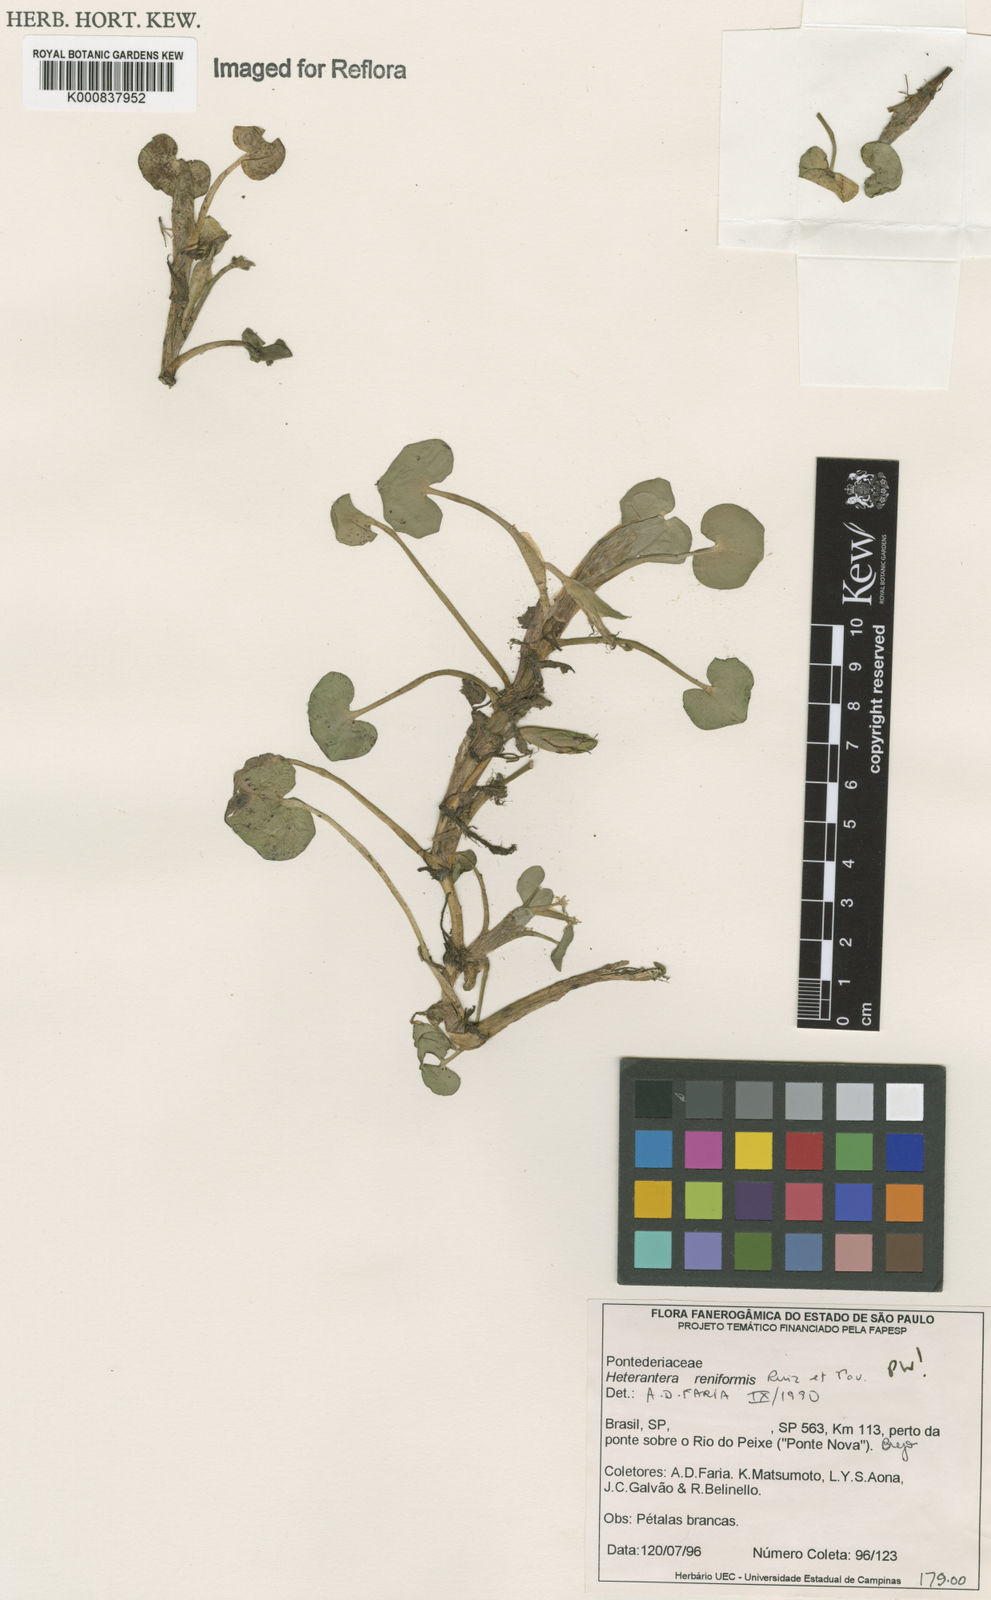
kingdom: Plantae
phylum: Tracheophyta
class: Liliopsida
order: Commelinales
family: Pontederiaceae
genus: Heteranthera
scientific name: Heteranthera reniformis
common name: Kidneyleaf mudplantain
